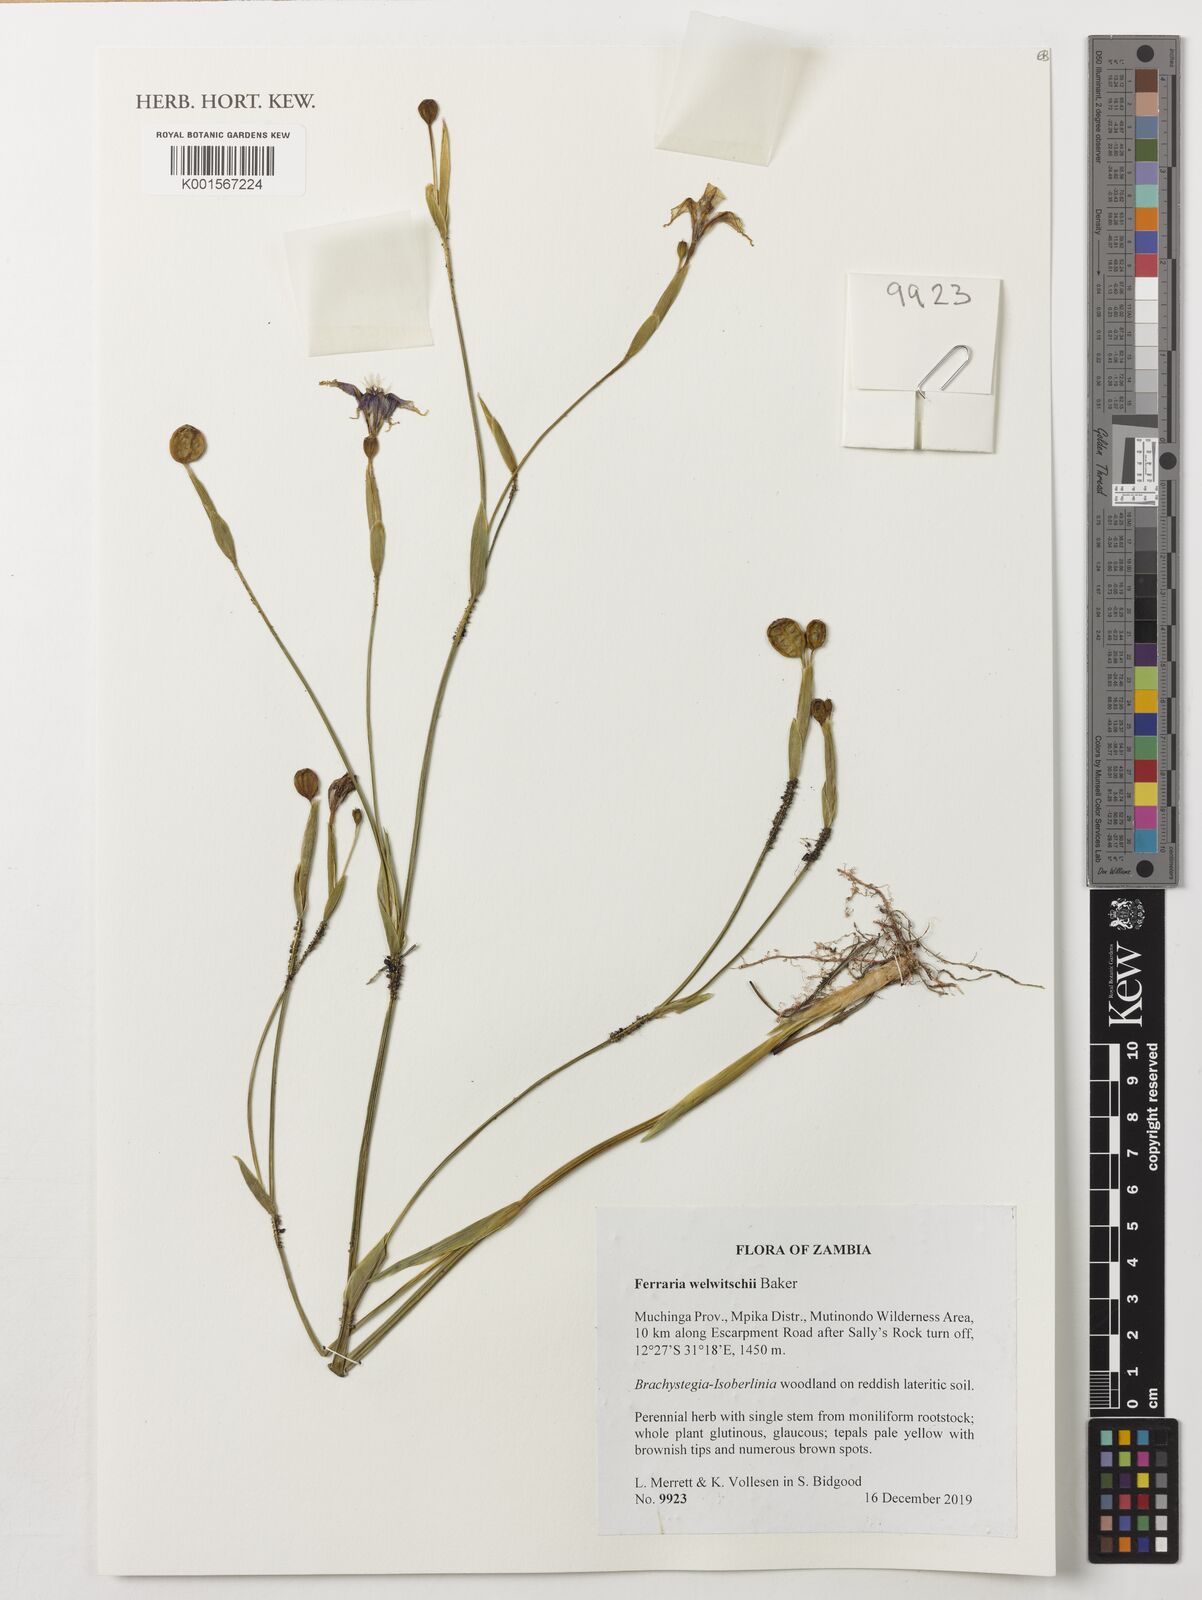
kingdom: Plantae
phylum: Tracheophyta
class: Liliopsida
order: Asparagales
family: Iridaceae
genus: Ferraria
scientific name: Ferraria welwitschii
